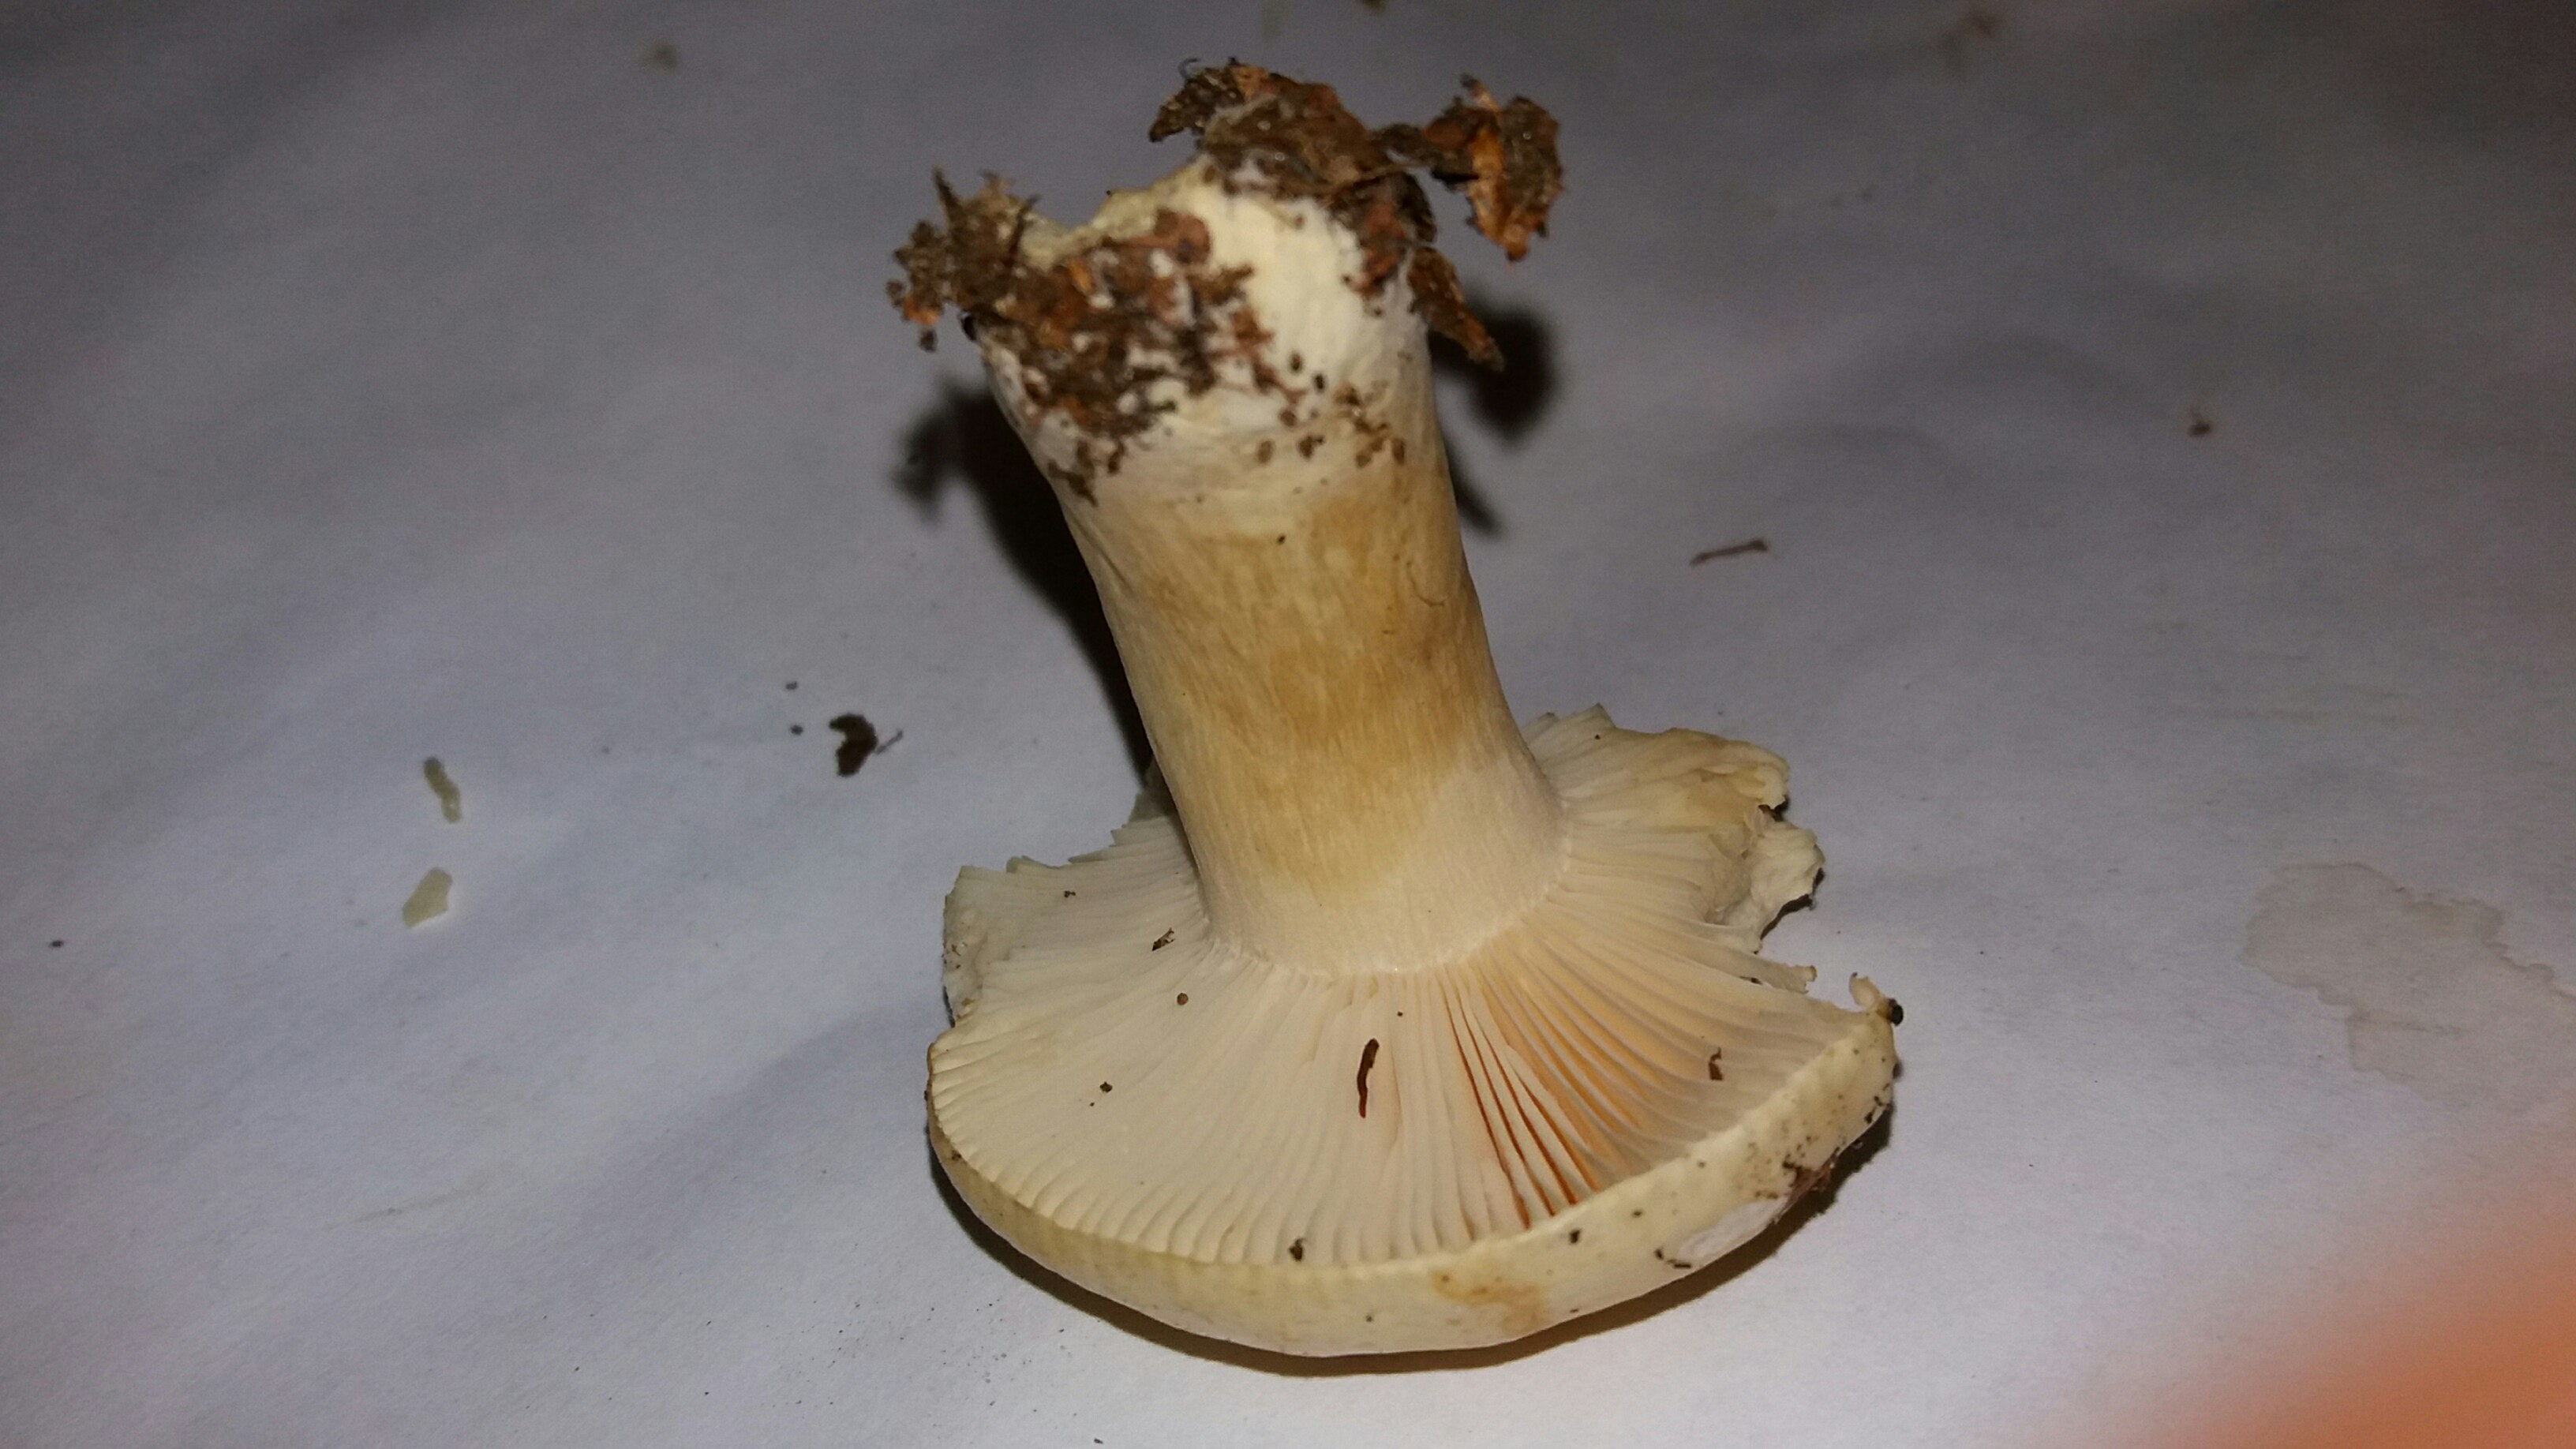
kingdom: Fungi
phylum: Basidiomycota
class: Agaricomycetes
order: Russulales
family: Russulaceae
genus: Russula
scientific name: Russula fellea
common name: galde-skørhat
